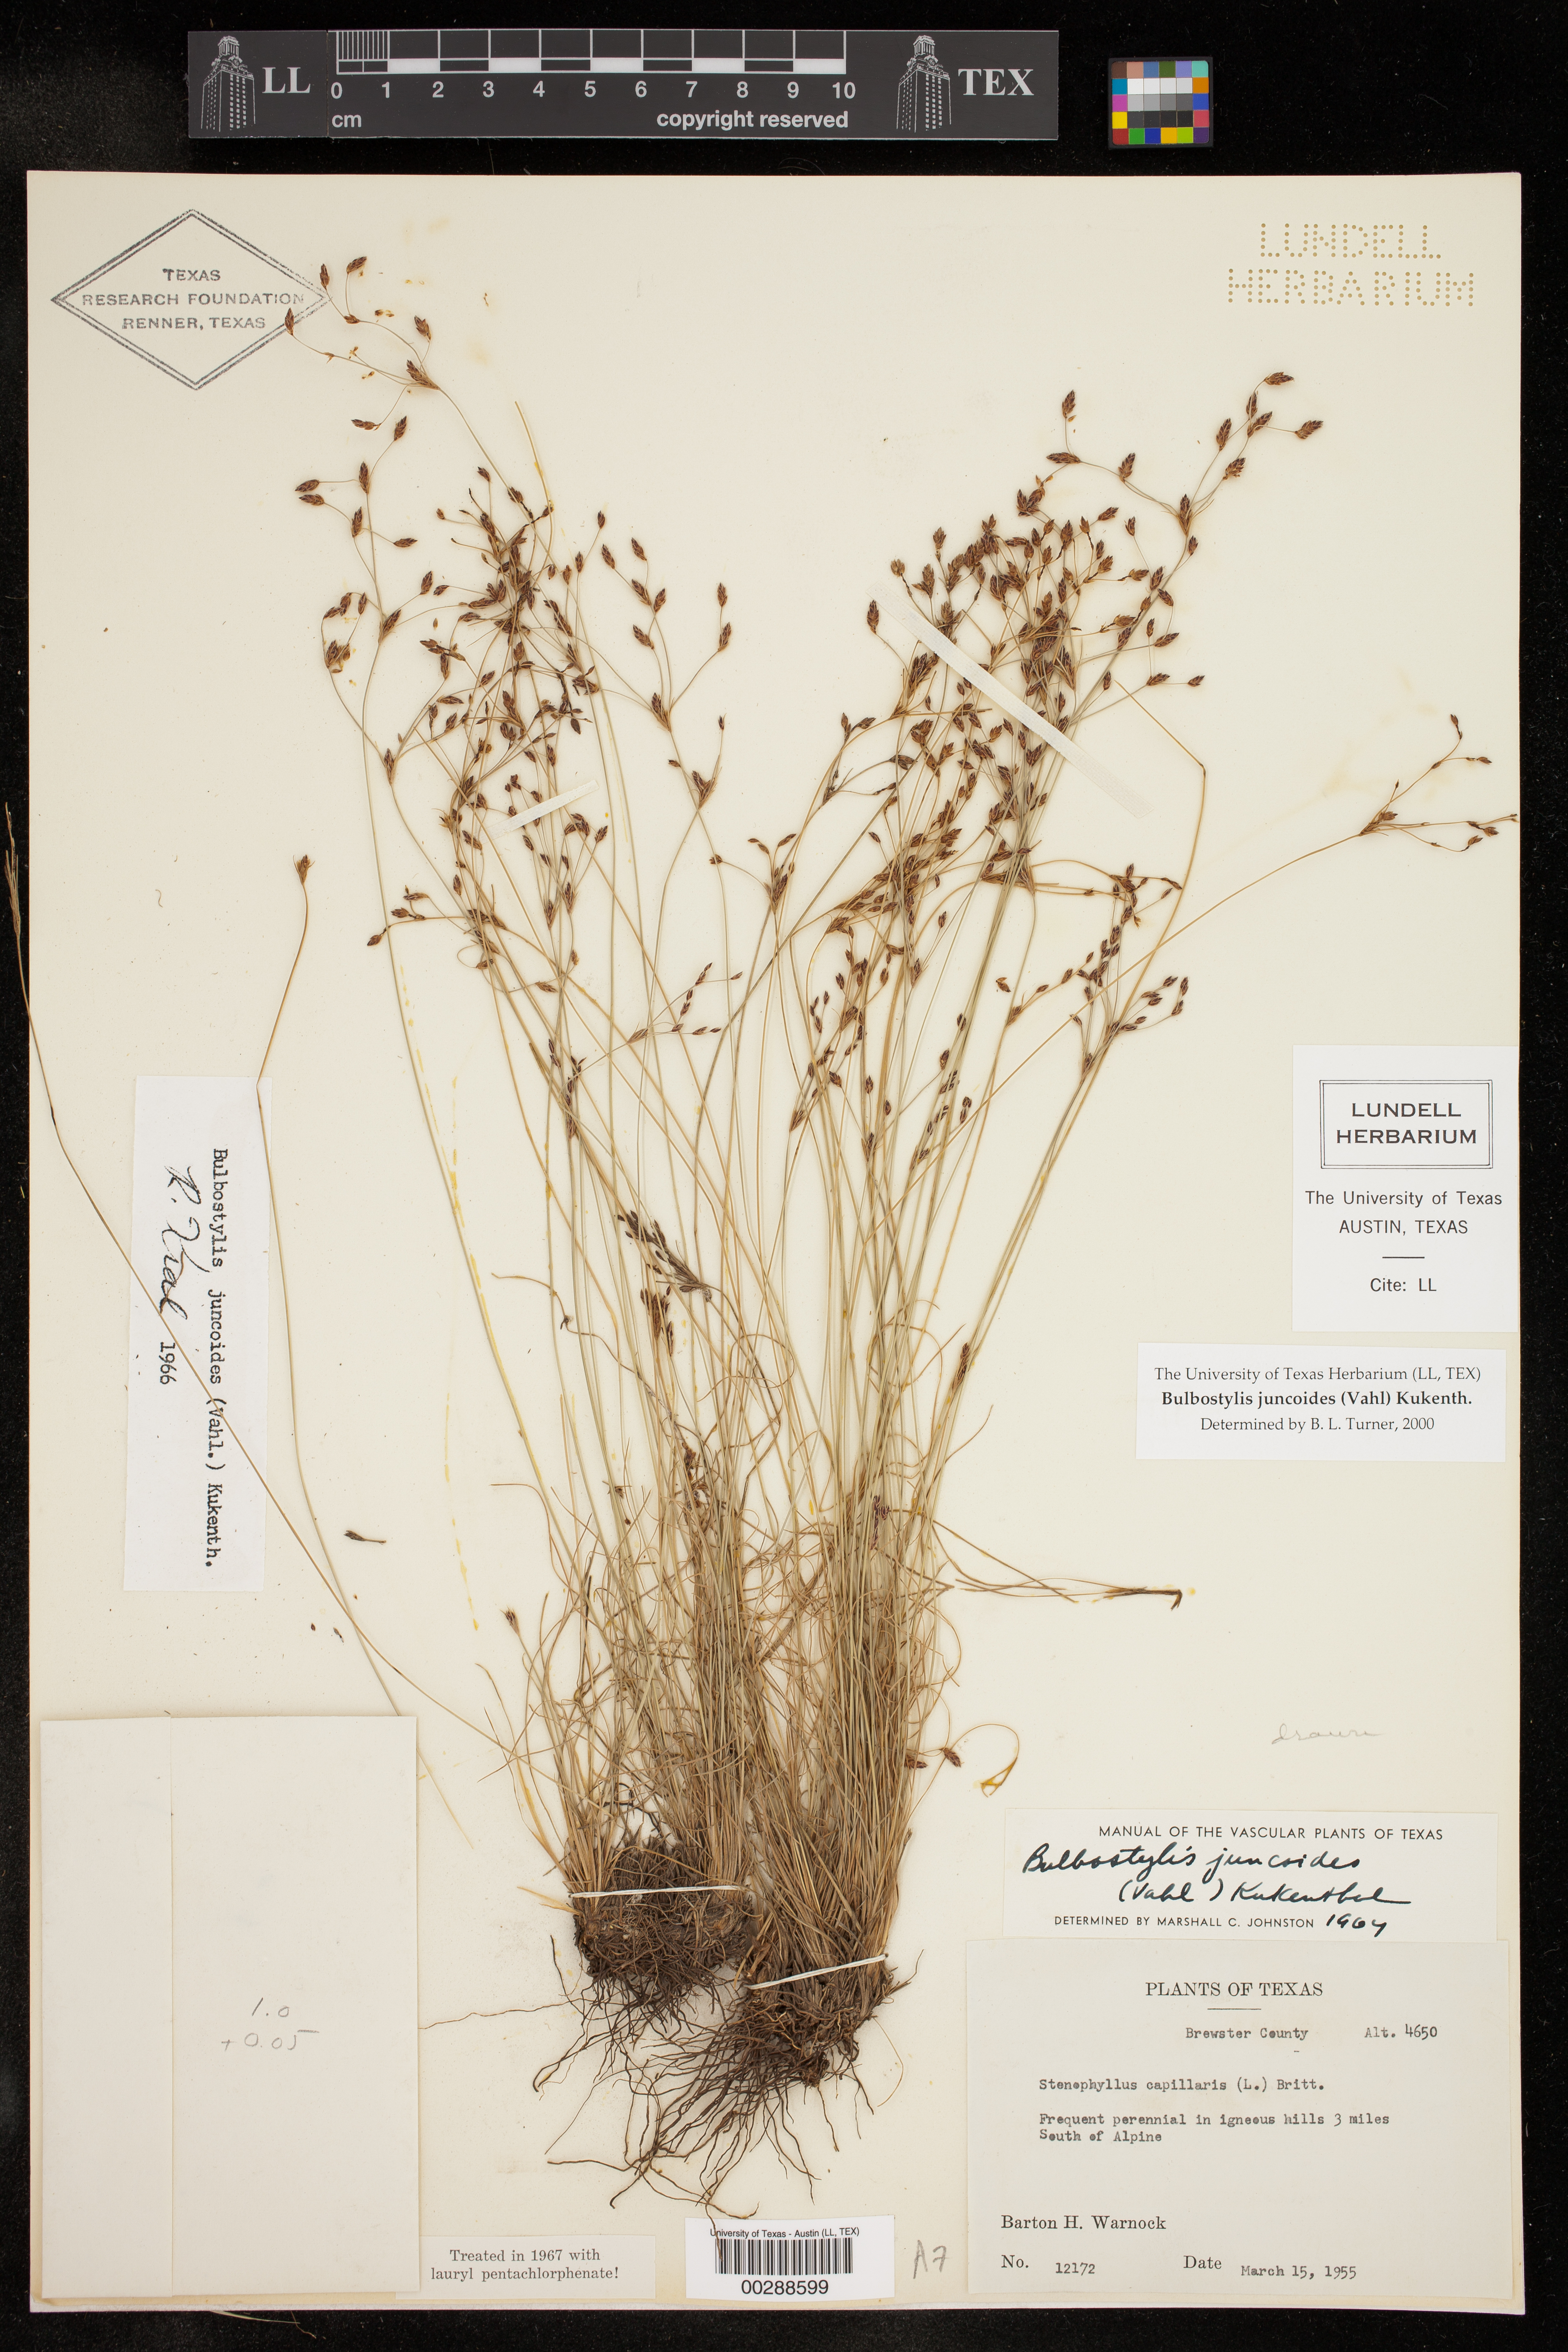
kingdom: Plantae
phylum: Tracheophyta
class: Liliopsida
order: Poales
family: Cyperaceae
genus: Bulbostylis
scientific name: Bulbostylis juncoides
